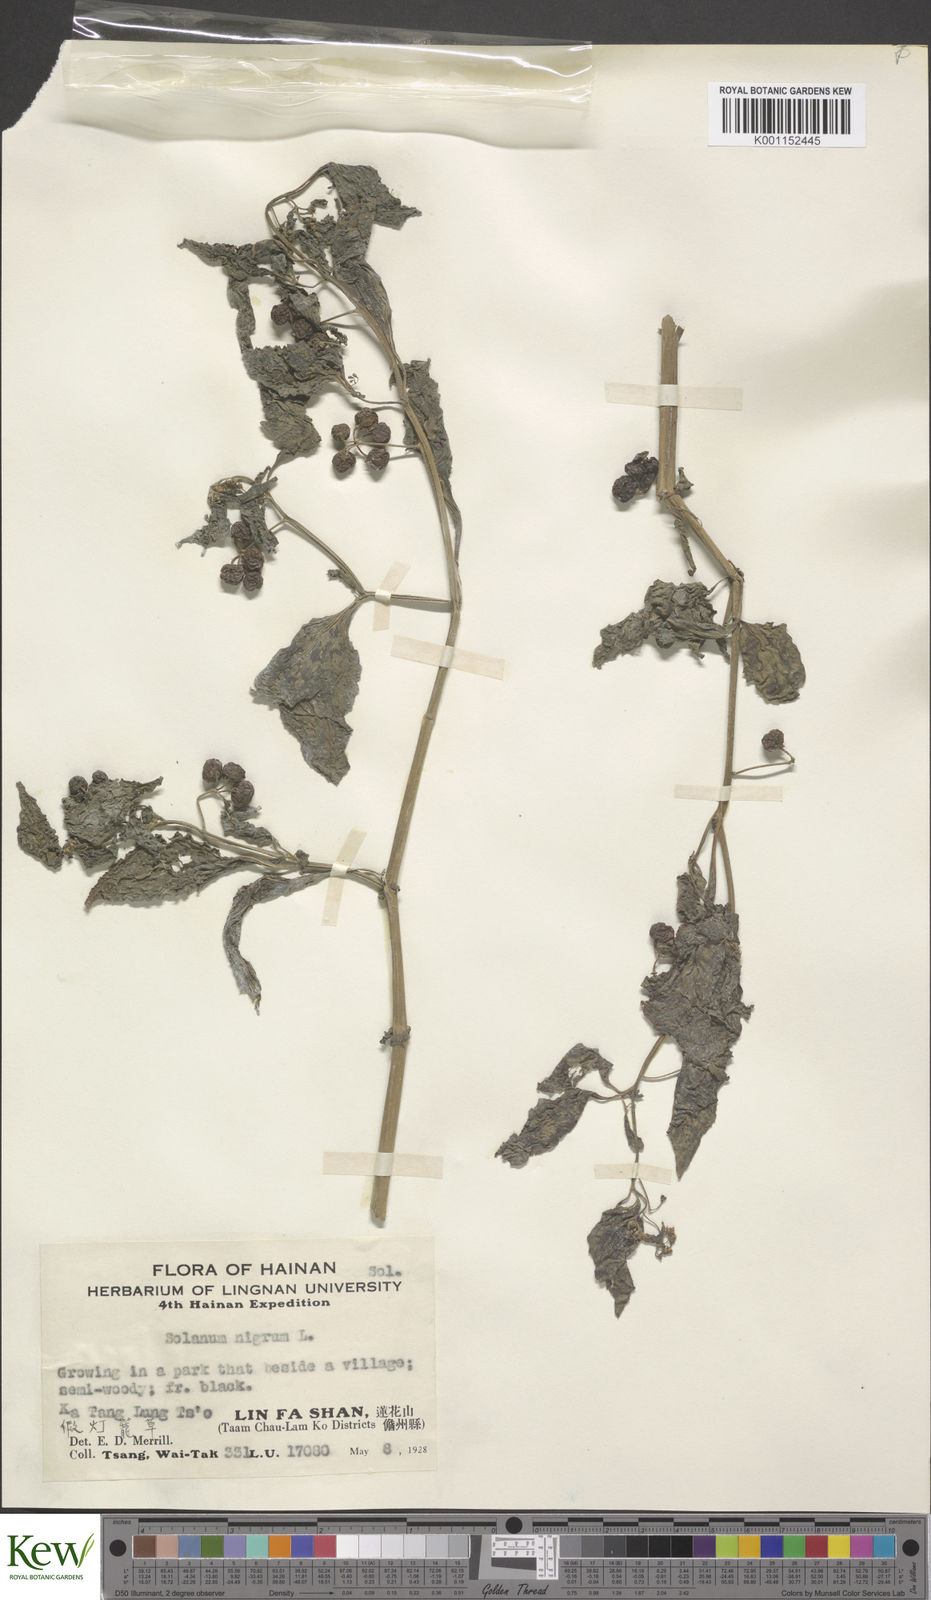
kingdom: Plantae
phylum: Tracheophyta
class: Magnoliopsida
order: Solanales
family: Solanaceae
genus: Solanum
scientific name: Solanum americanum
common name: American black nightshade
